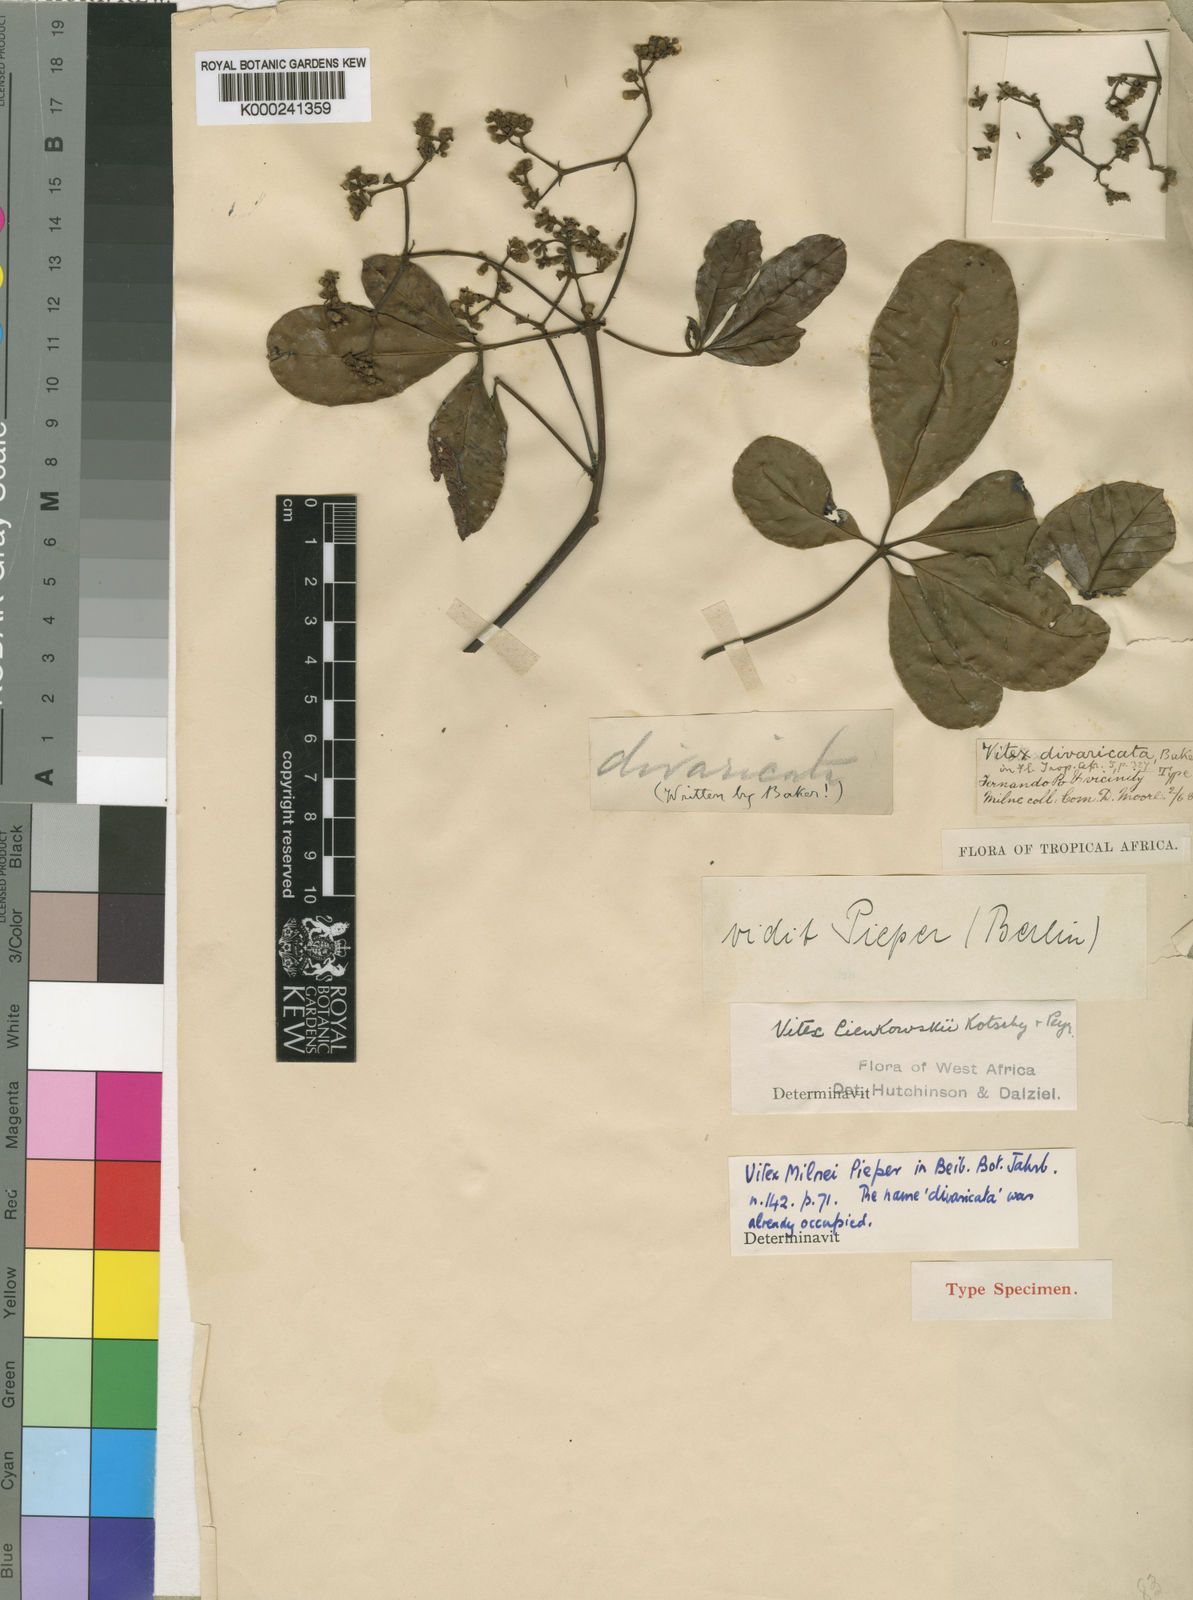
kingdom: Plantae
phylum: Tracheophyta
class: Magnoliopsida
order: Lamiales
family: Lamiaceae
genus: Vitex
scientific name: Vitex milnei
